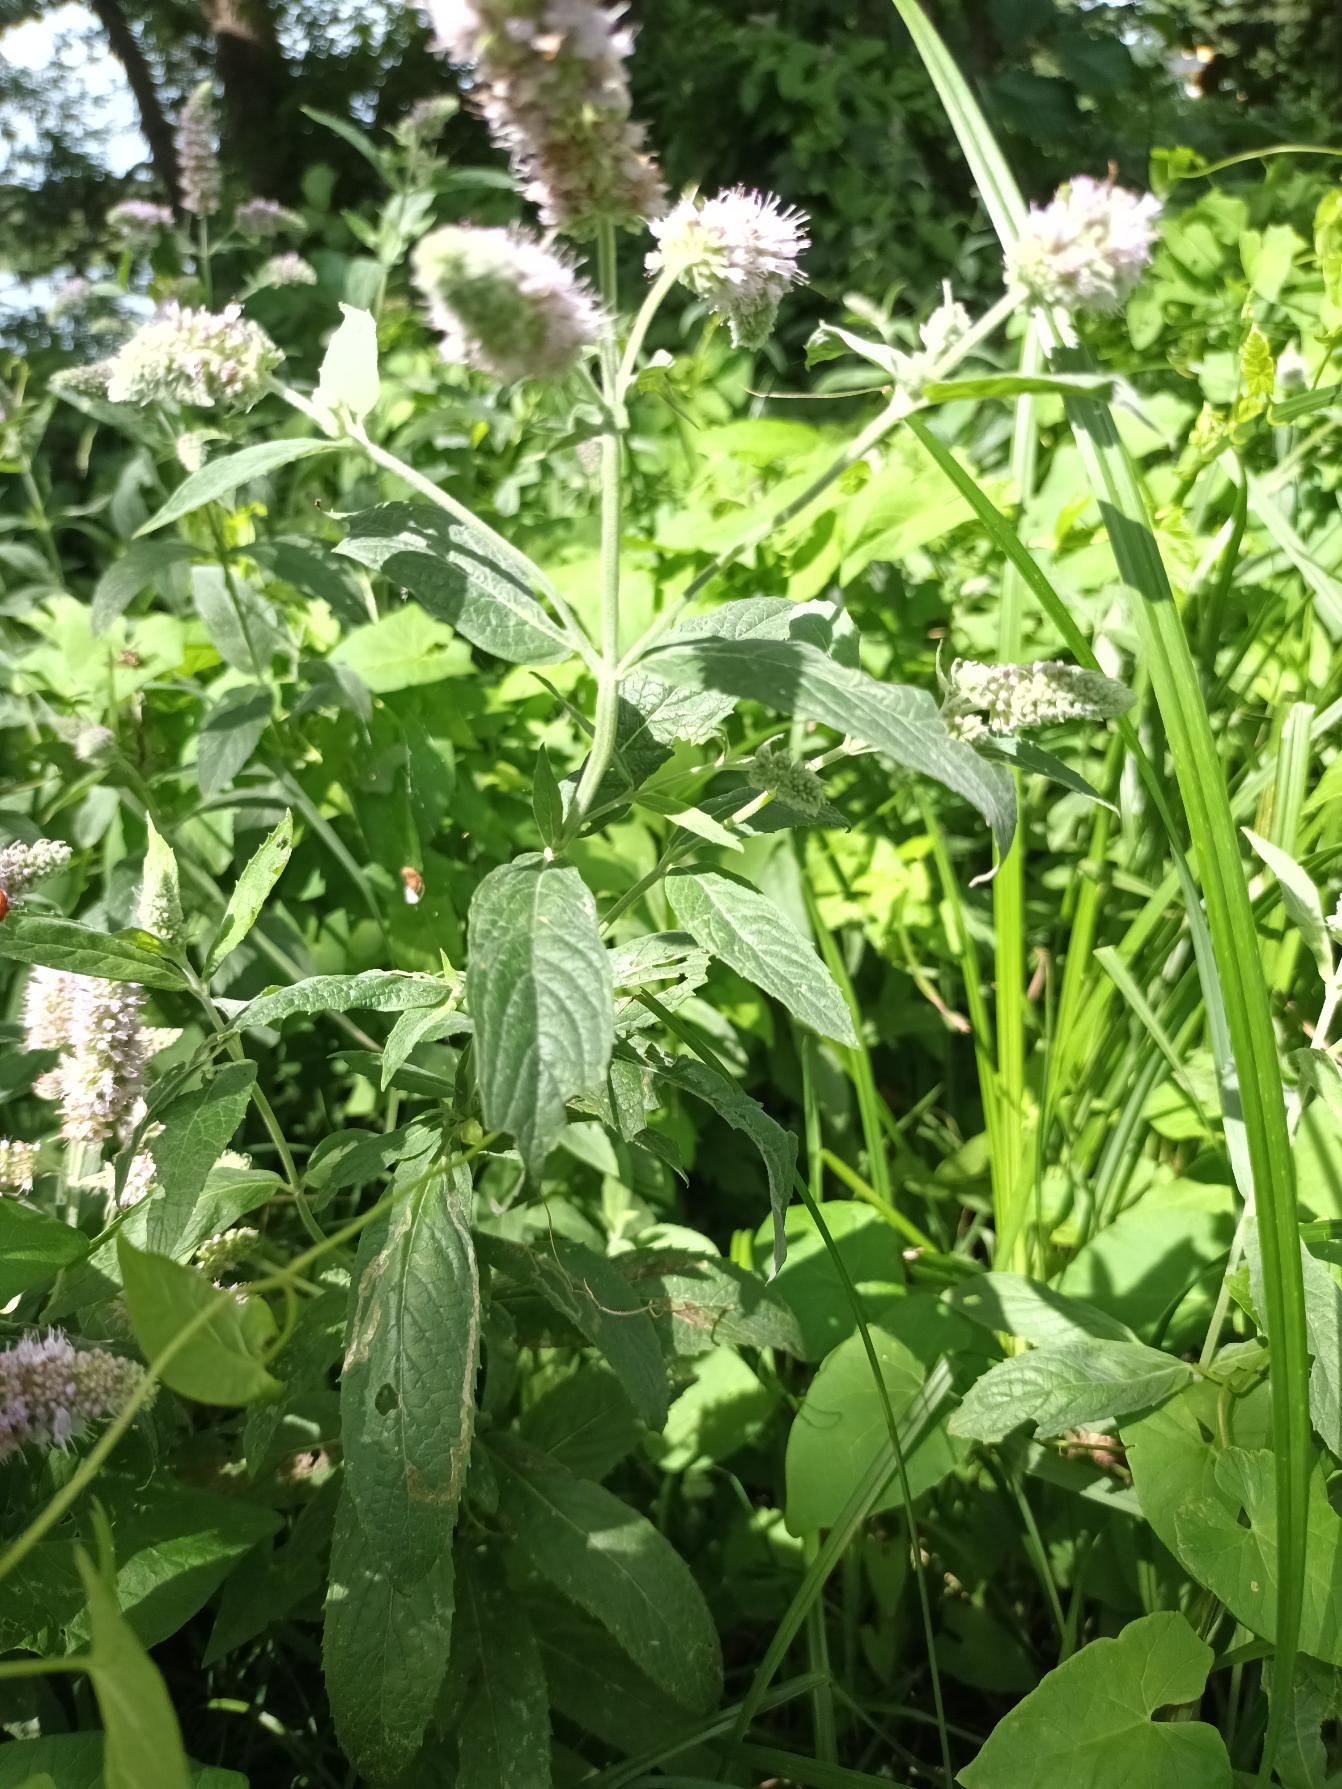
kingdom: Plantae
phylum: Tracheophyta
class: Magnoliopsida
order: Lamiales
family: Lamiaceae
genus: Mentha
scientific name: Mentha longifolia
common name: Grå mynte
